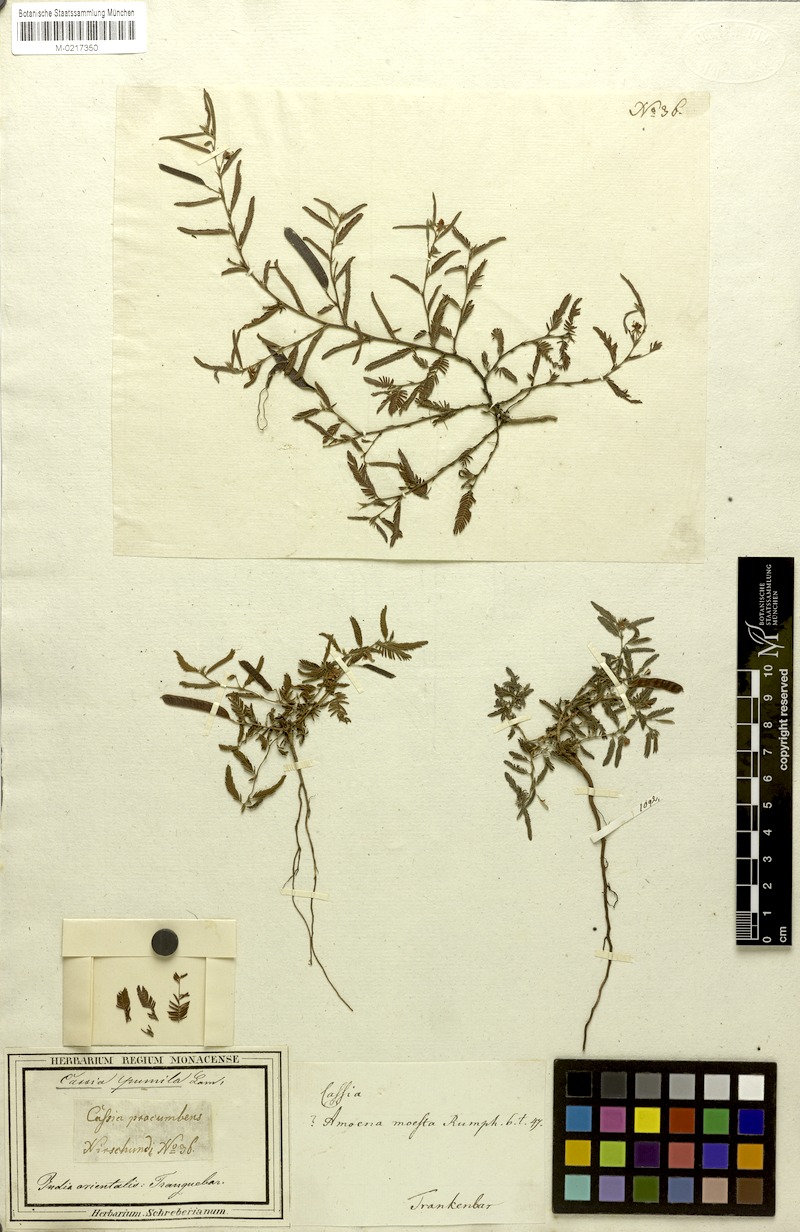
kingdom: Plantae
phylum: Tracheophyta
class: Magnoliopsida
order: Fabales
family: Fabaceae
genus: Chamaecrista
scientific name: Chamaecrista pumila
